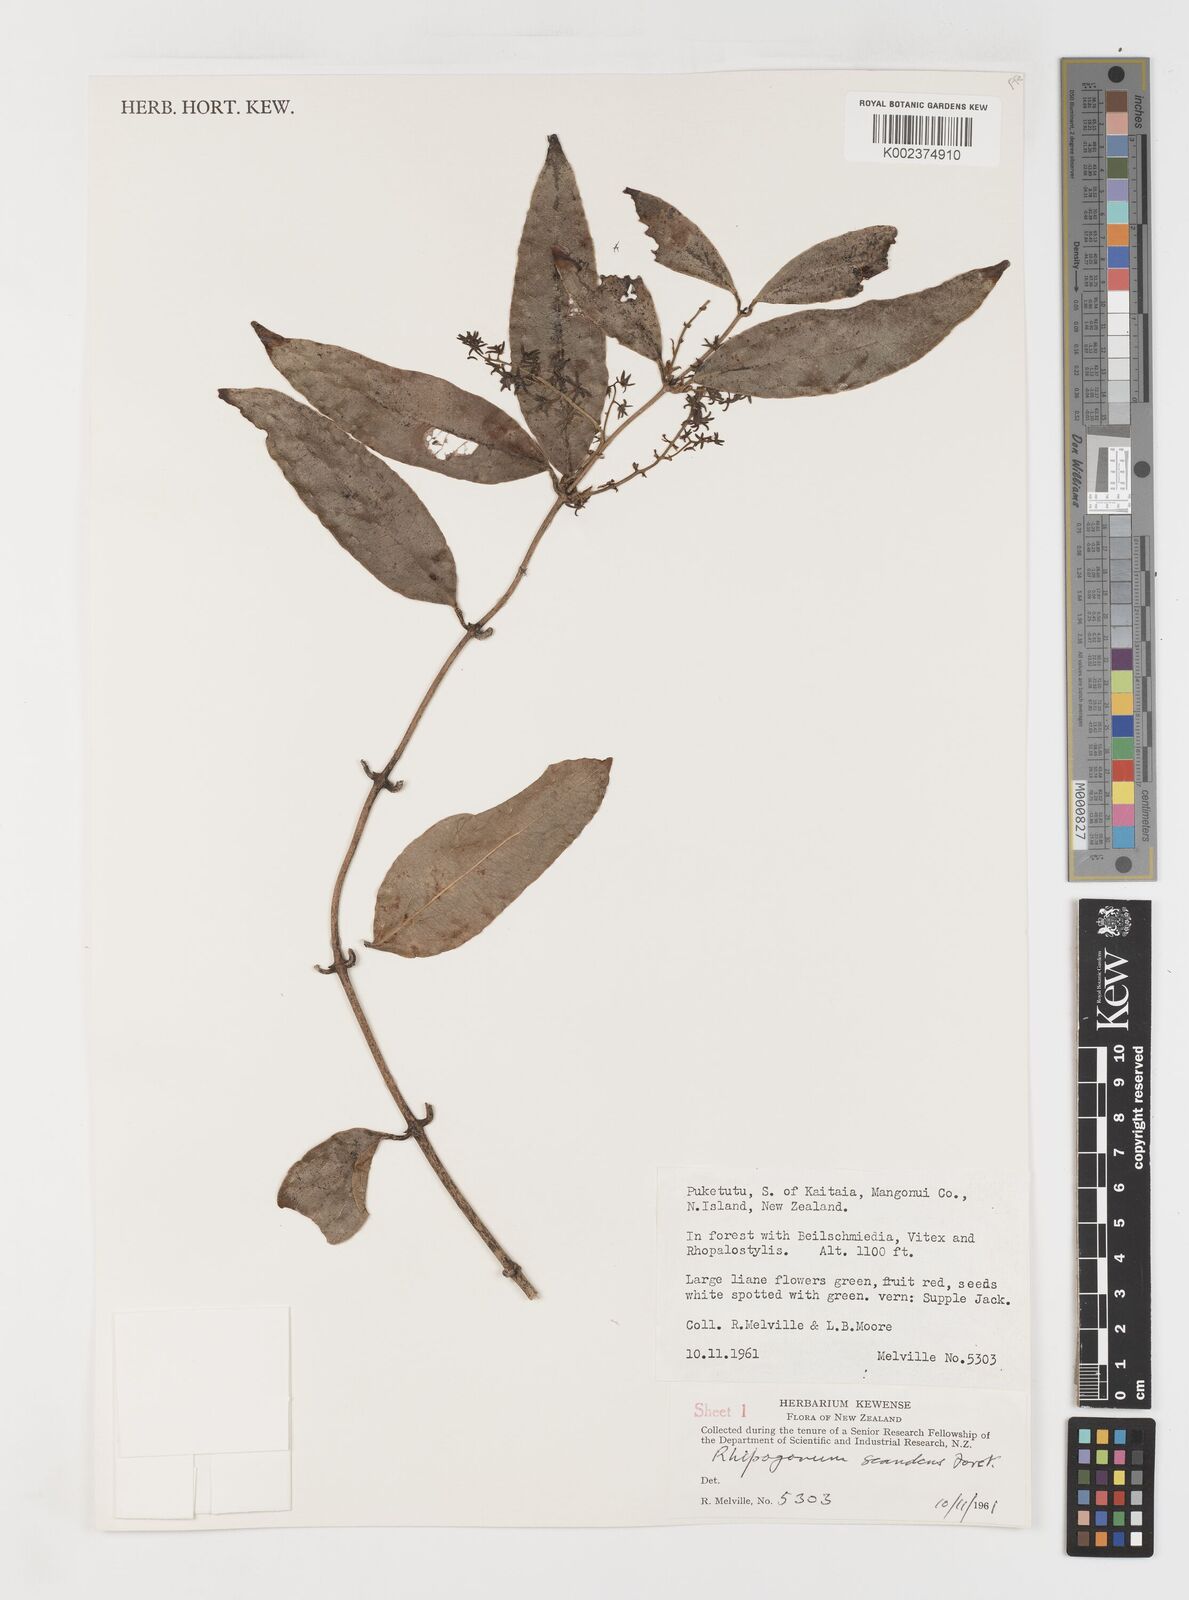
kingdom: Plantae
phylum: Tracheophyta
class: Liliopsida
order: Liliales
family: Ripogonaceae
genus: Ripogonum
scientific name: Ripogonum
